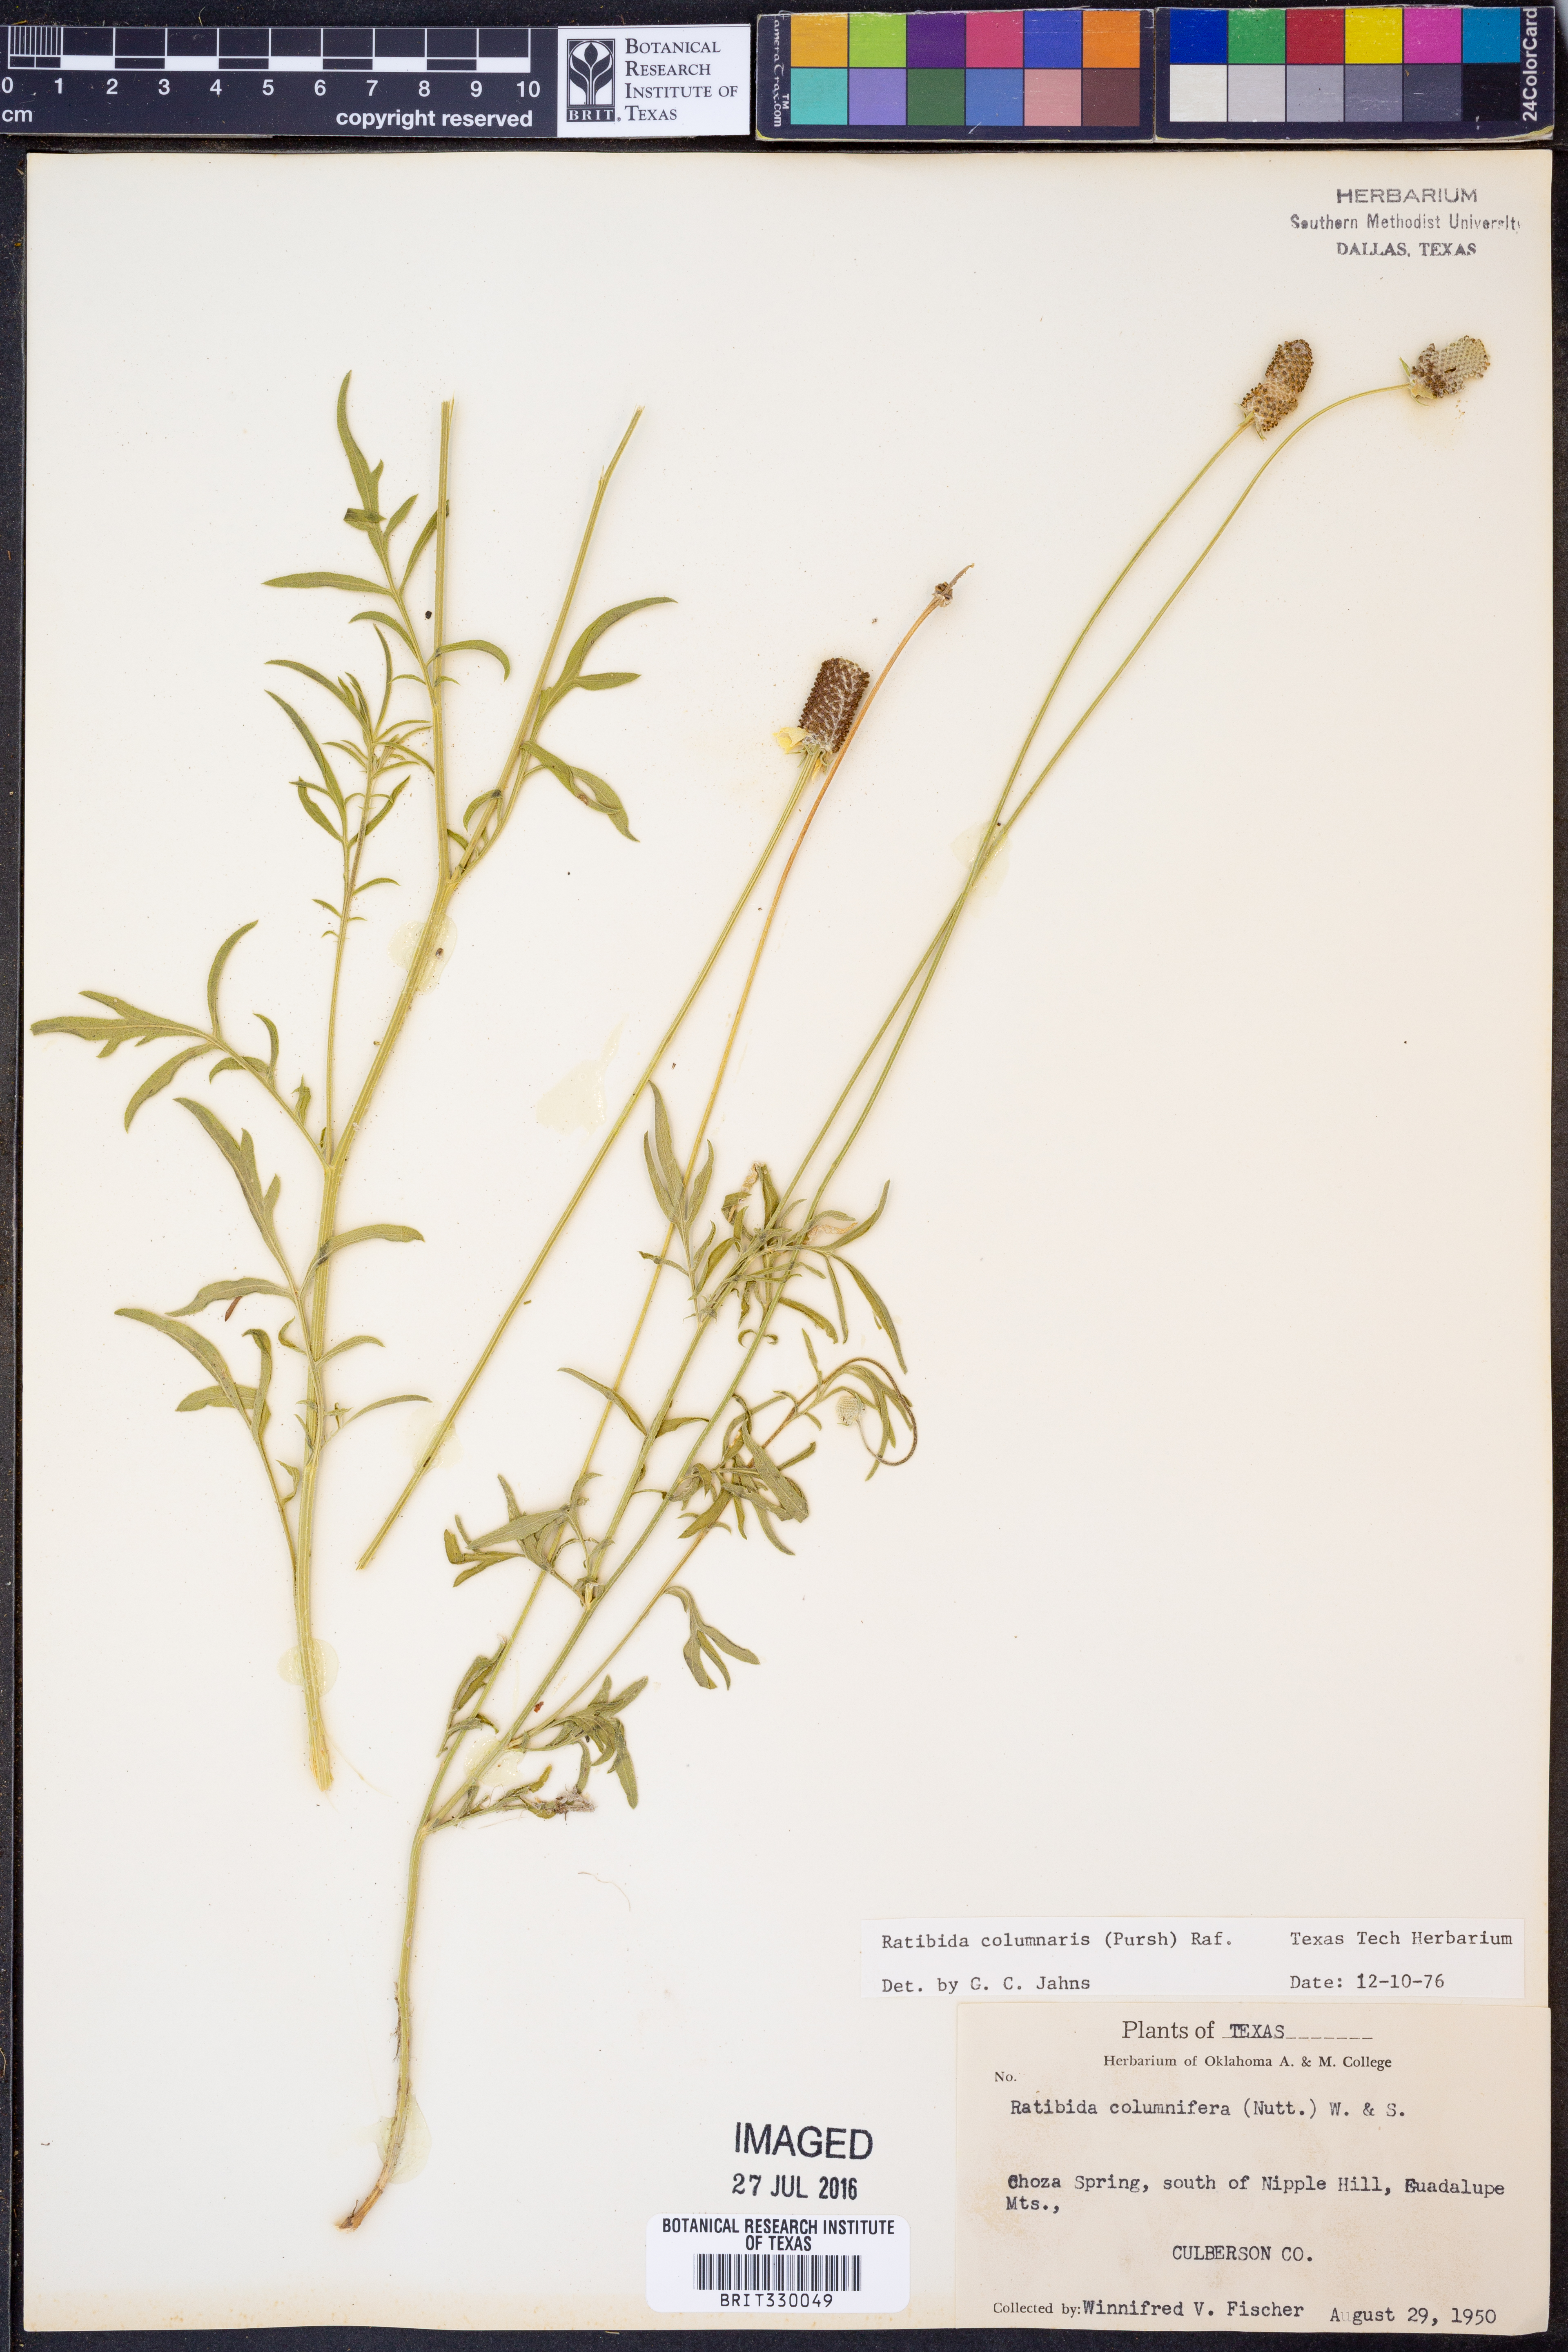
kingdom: Plantae
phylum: Tracheophyta
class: Magnoliopsida
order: Asterales
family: Asteraceae
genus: Ratibida
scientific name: Ratibida columnifera
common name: Prairie coneflower
